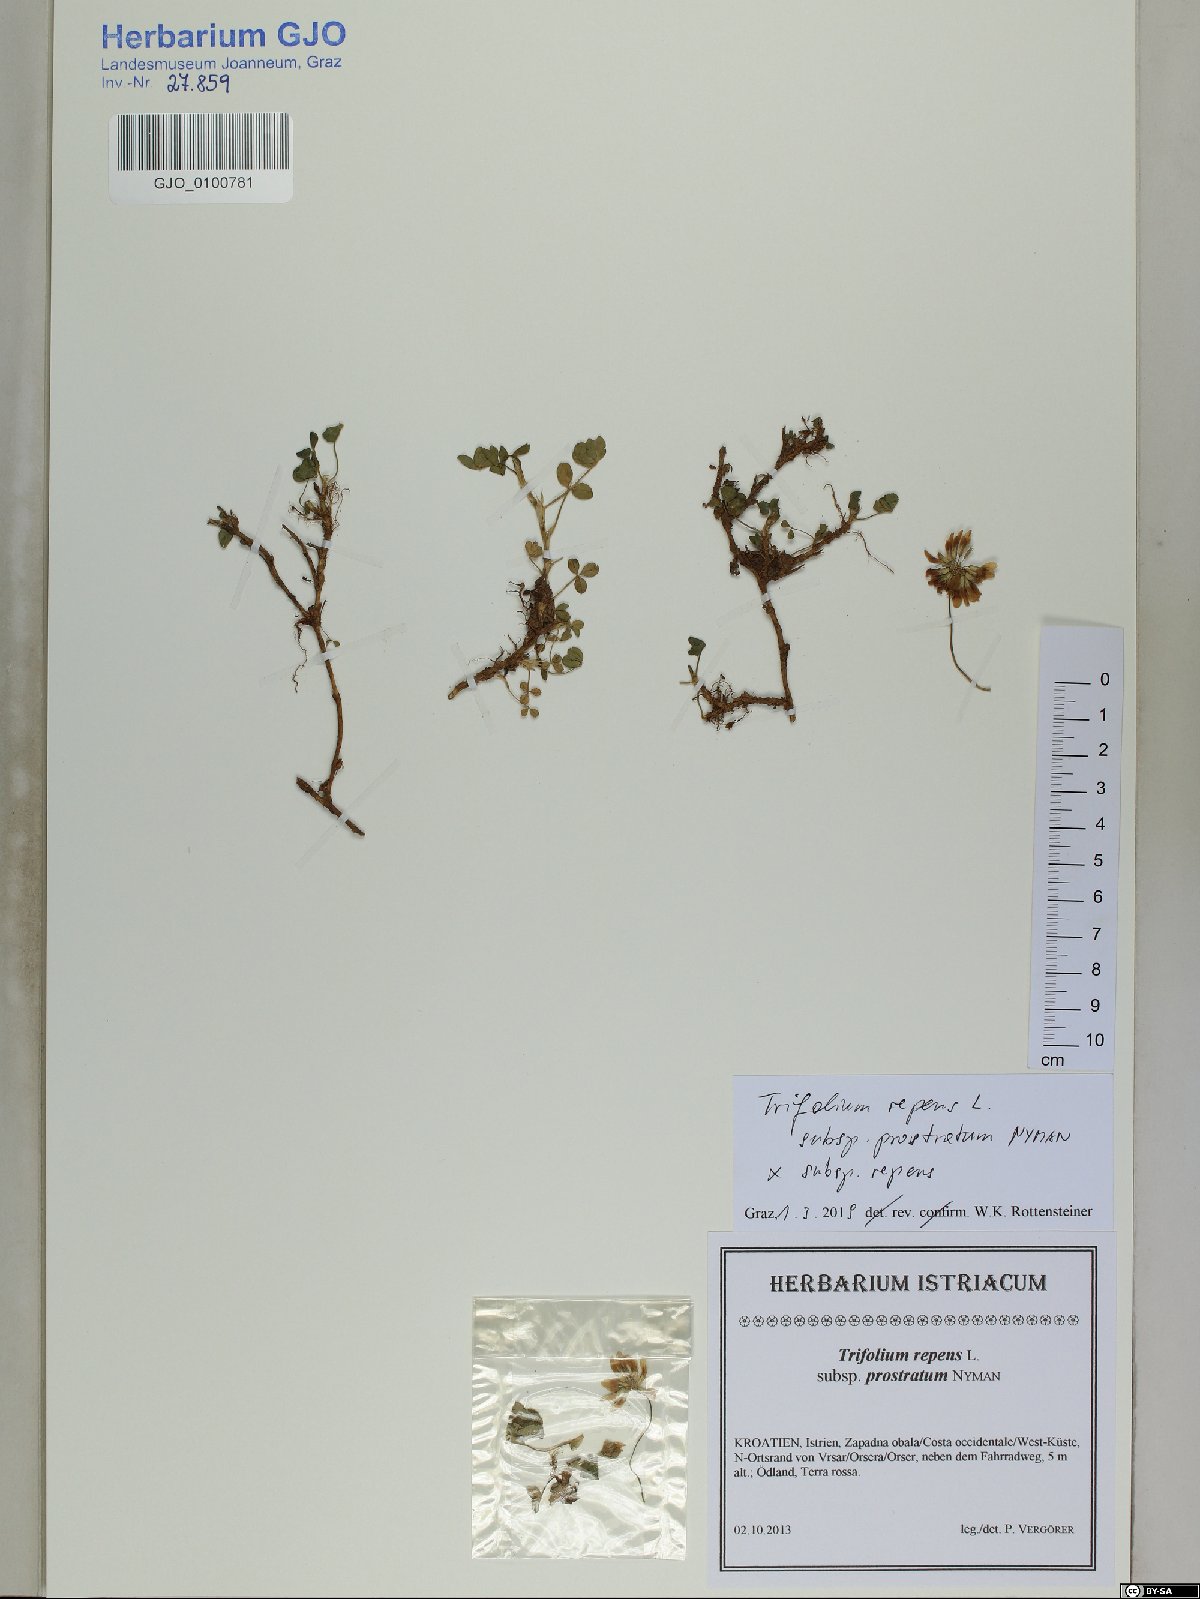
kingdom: Plantae
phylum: Tracheophyta
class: Magnoliopsida
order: Fabales
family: Fabaceae
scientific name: Fabaceae
